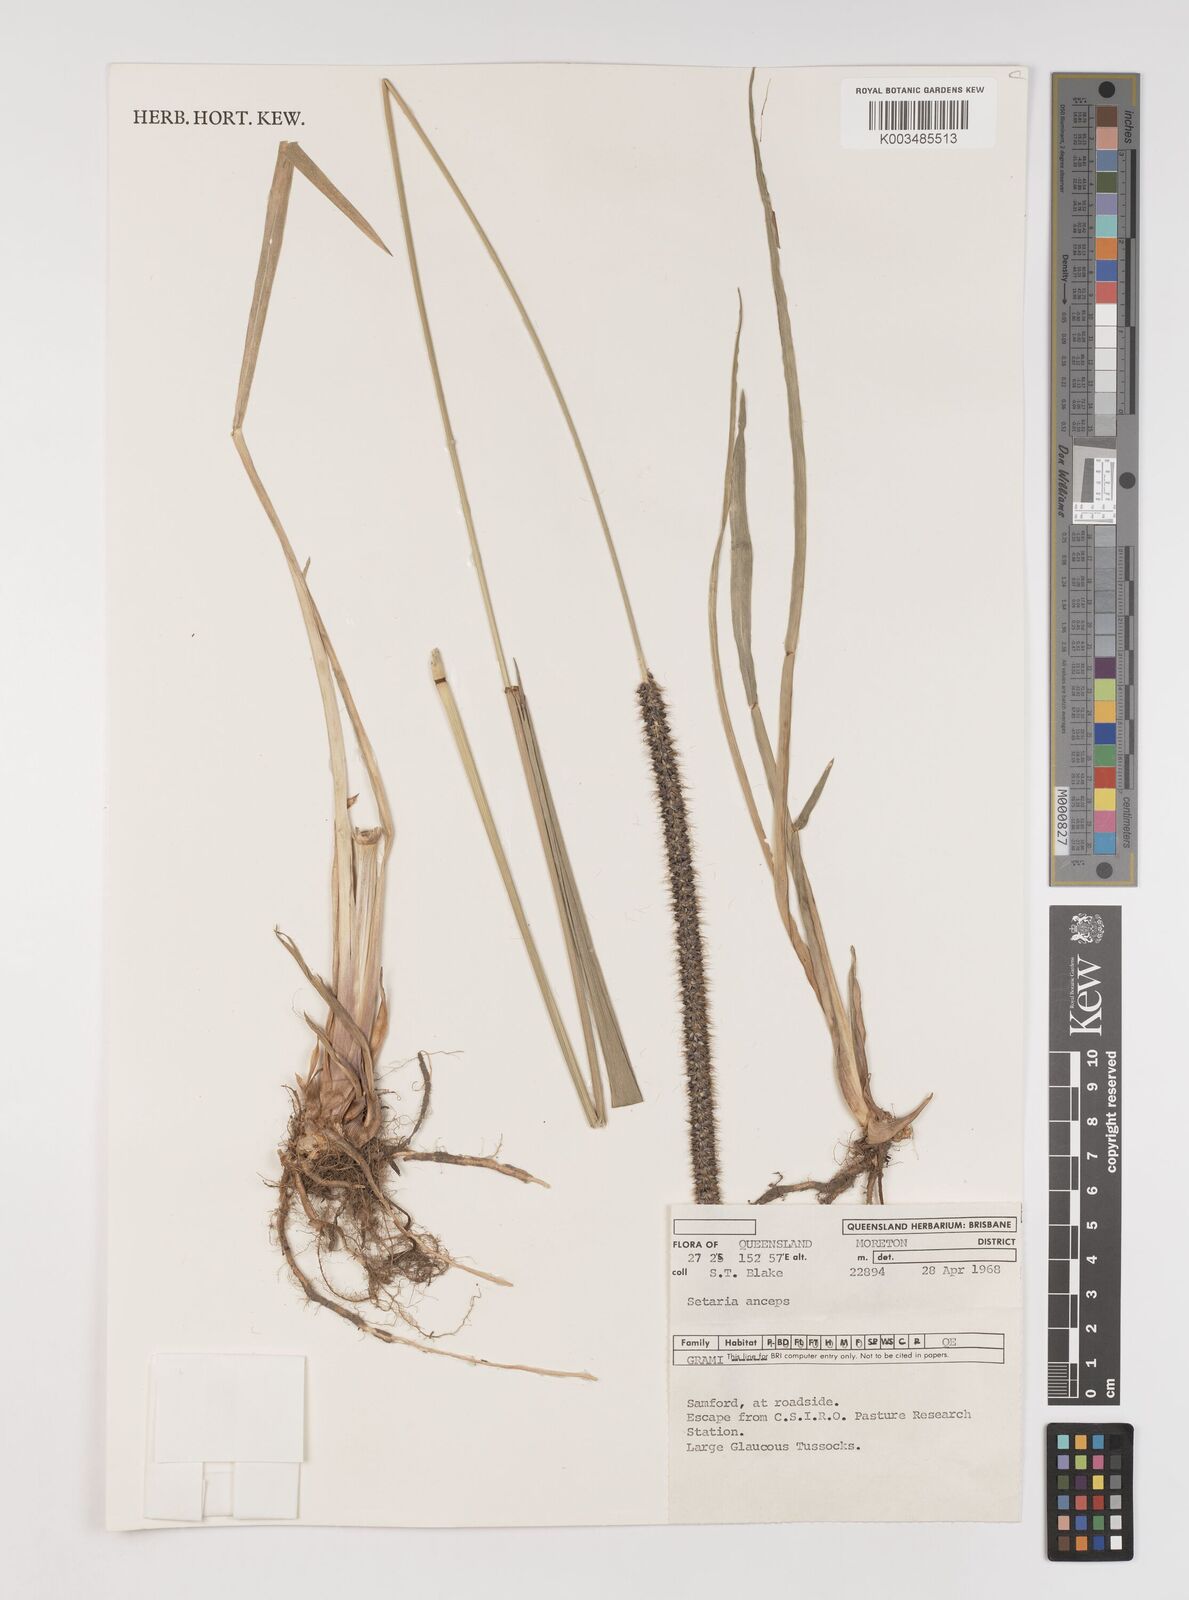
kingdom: Plantae
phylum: Tracheophyta
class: Liliopsida
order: Poales
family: Poaceae
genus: Setaria
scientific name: Setaria sphacelata
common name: African bristlegrass
